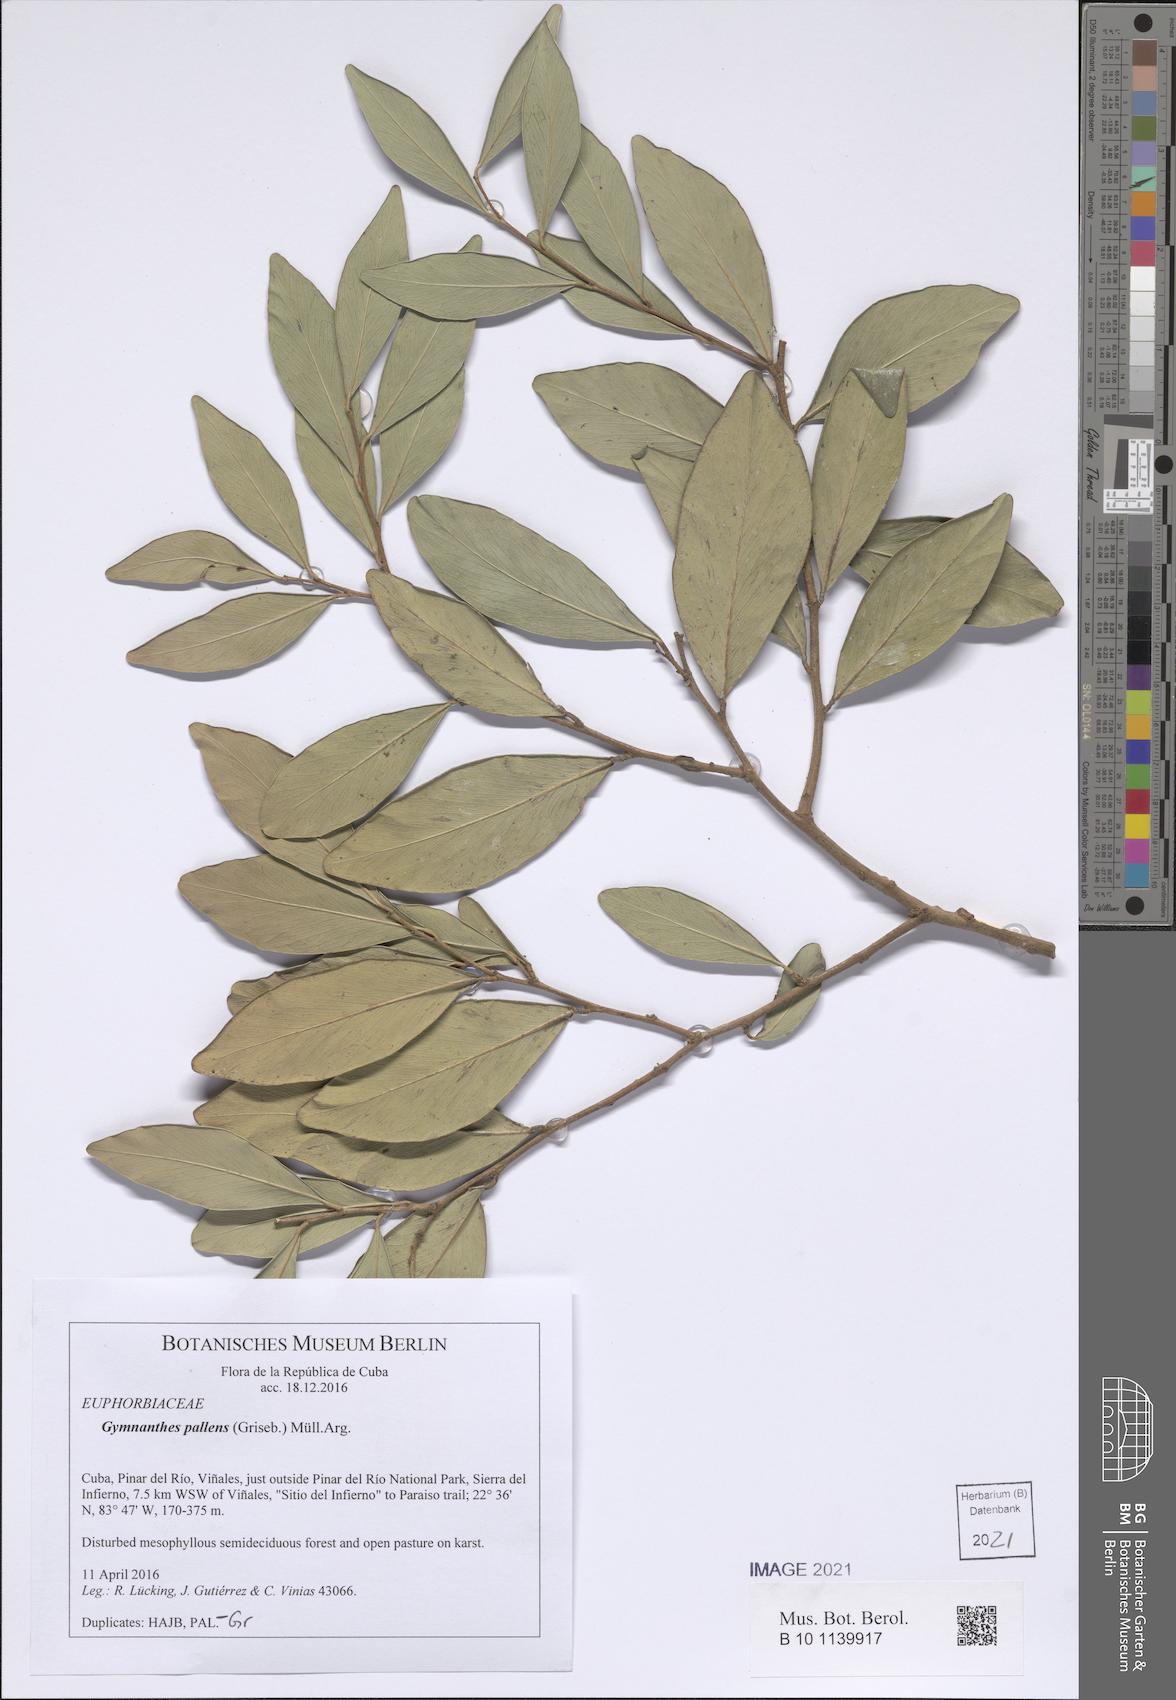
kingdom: Plantae
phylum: Tracheophyta
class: Magnoliopsida
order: Malpighiales
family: Euphorbiaceae
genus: Gymnanthes
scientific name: Gymnanthes pallens
